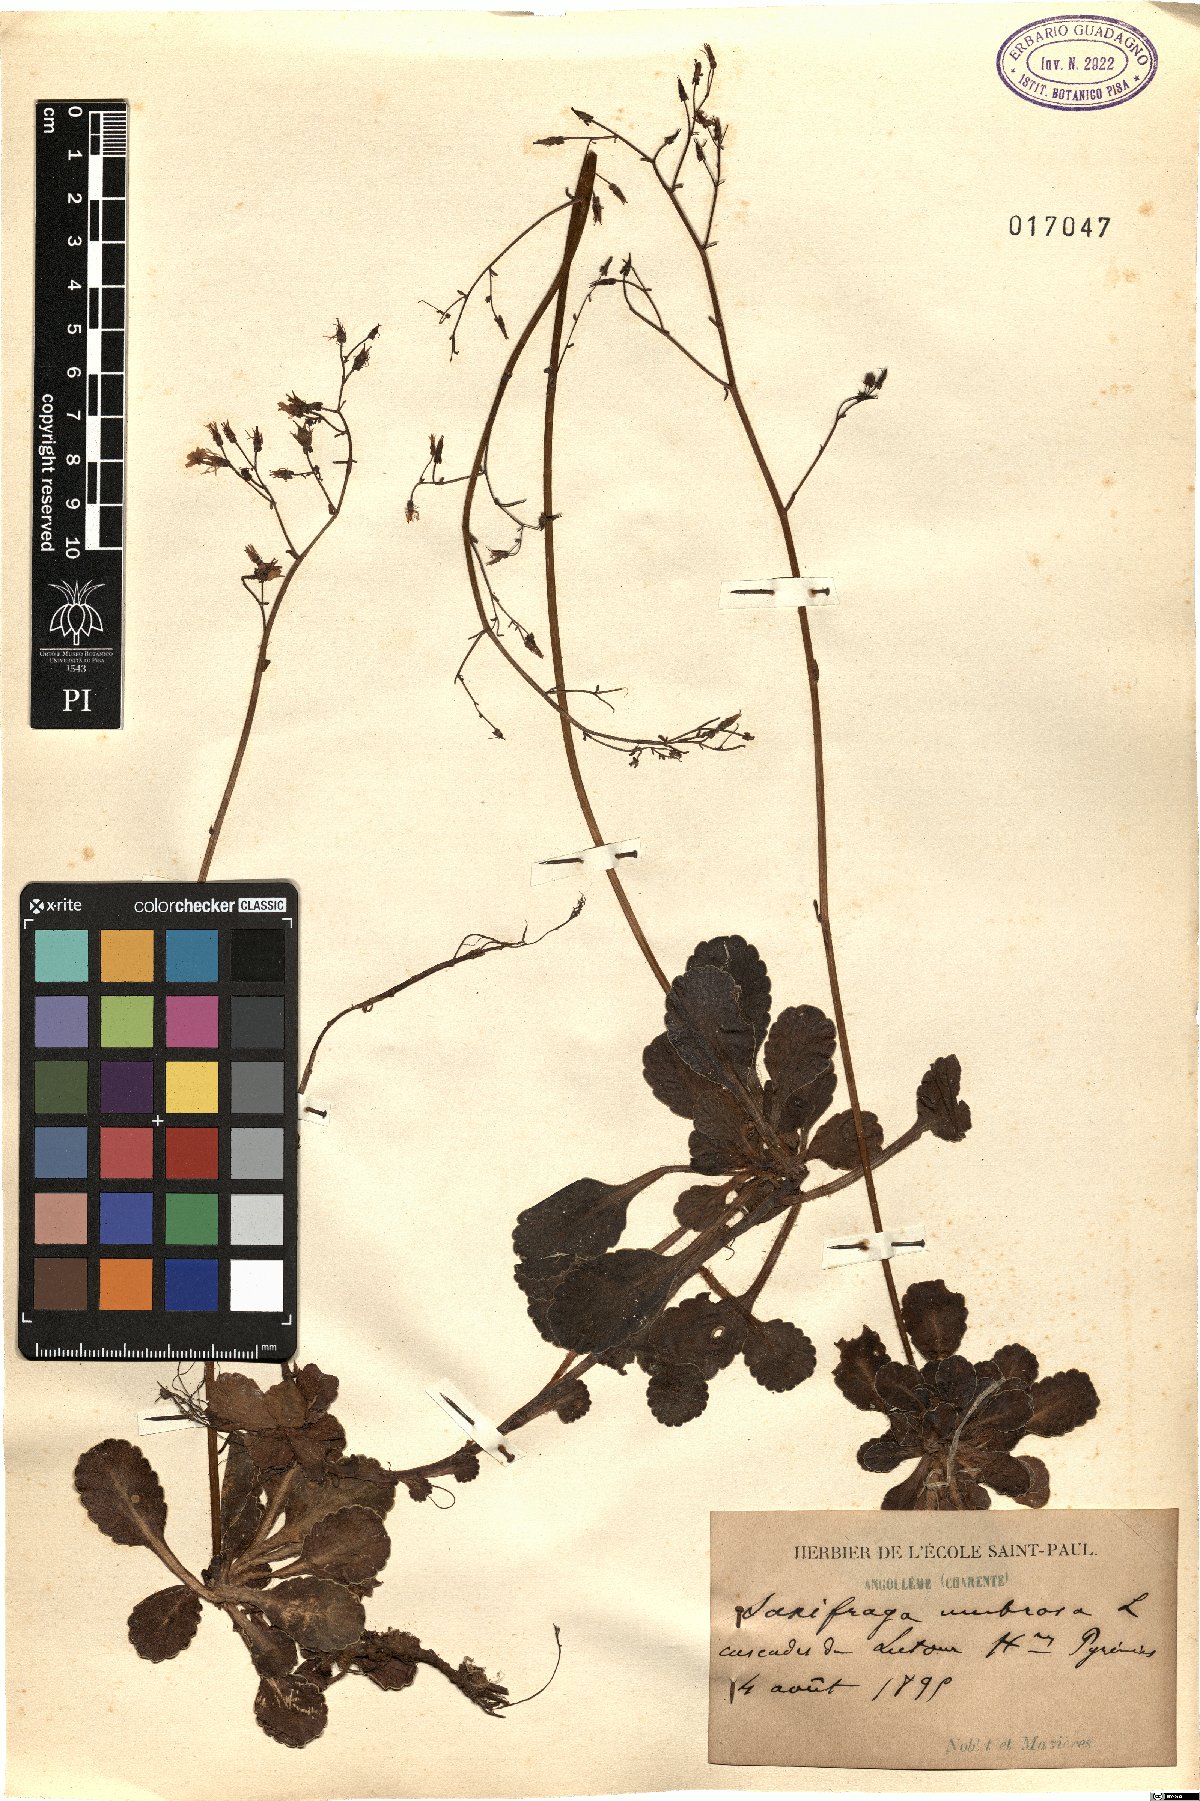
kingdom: Plantae
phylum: Tracheophyta
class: Magnoliopsida
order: Saxifragales
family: Saxifragaceae
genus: Saxifraga
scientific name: Saxifraga umbrosa
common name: Pyrenean saxifrage
